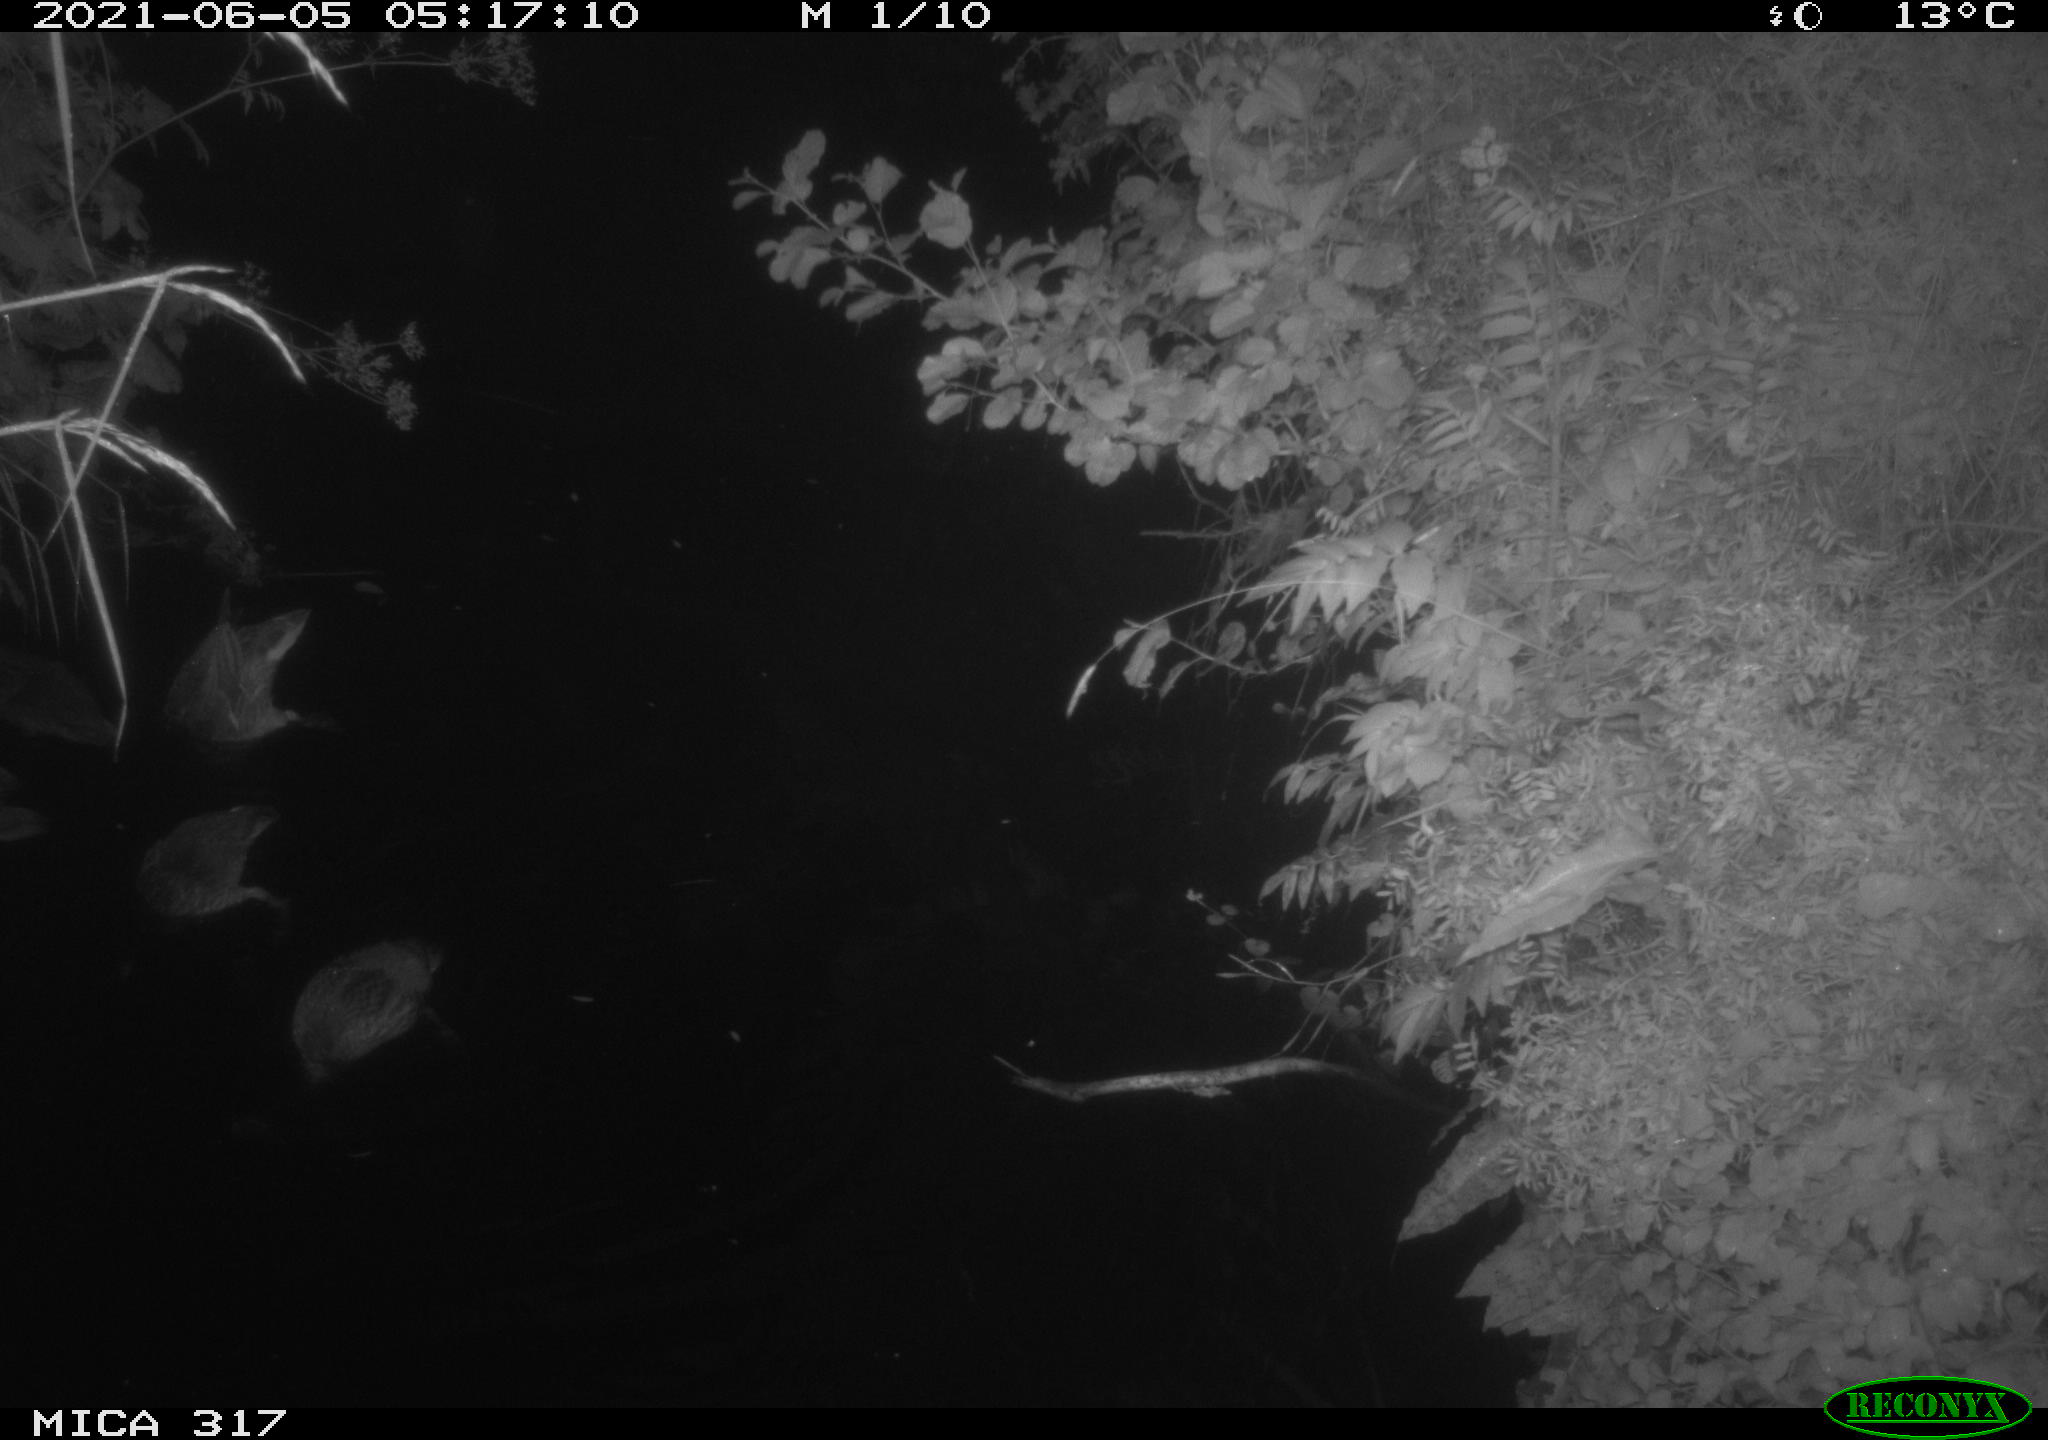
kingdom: Animalia
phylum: Chordata
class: Aves
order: Anseriformes
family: Anatidae
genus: Anas
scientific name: Anas platyrhynchos
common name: Mallard
